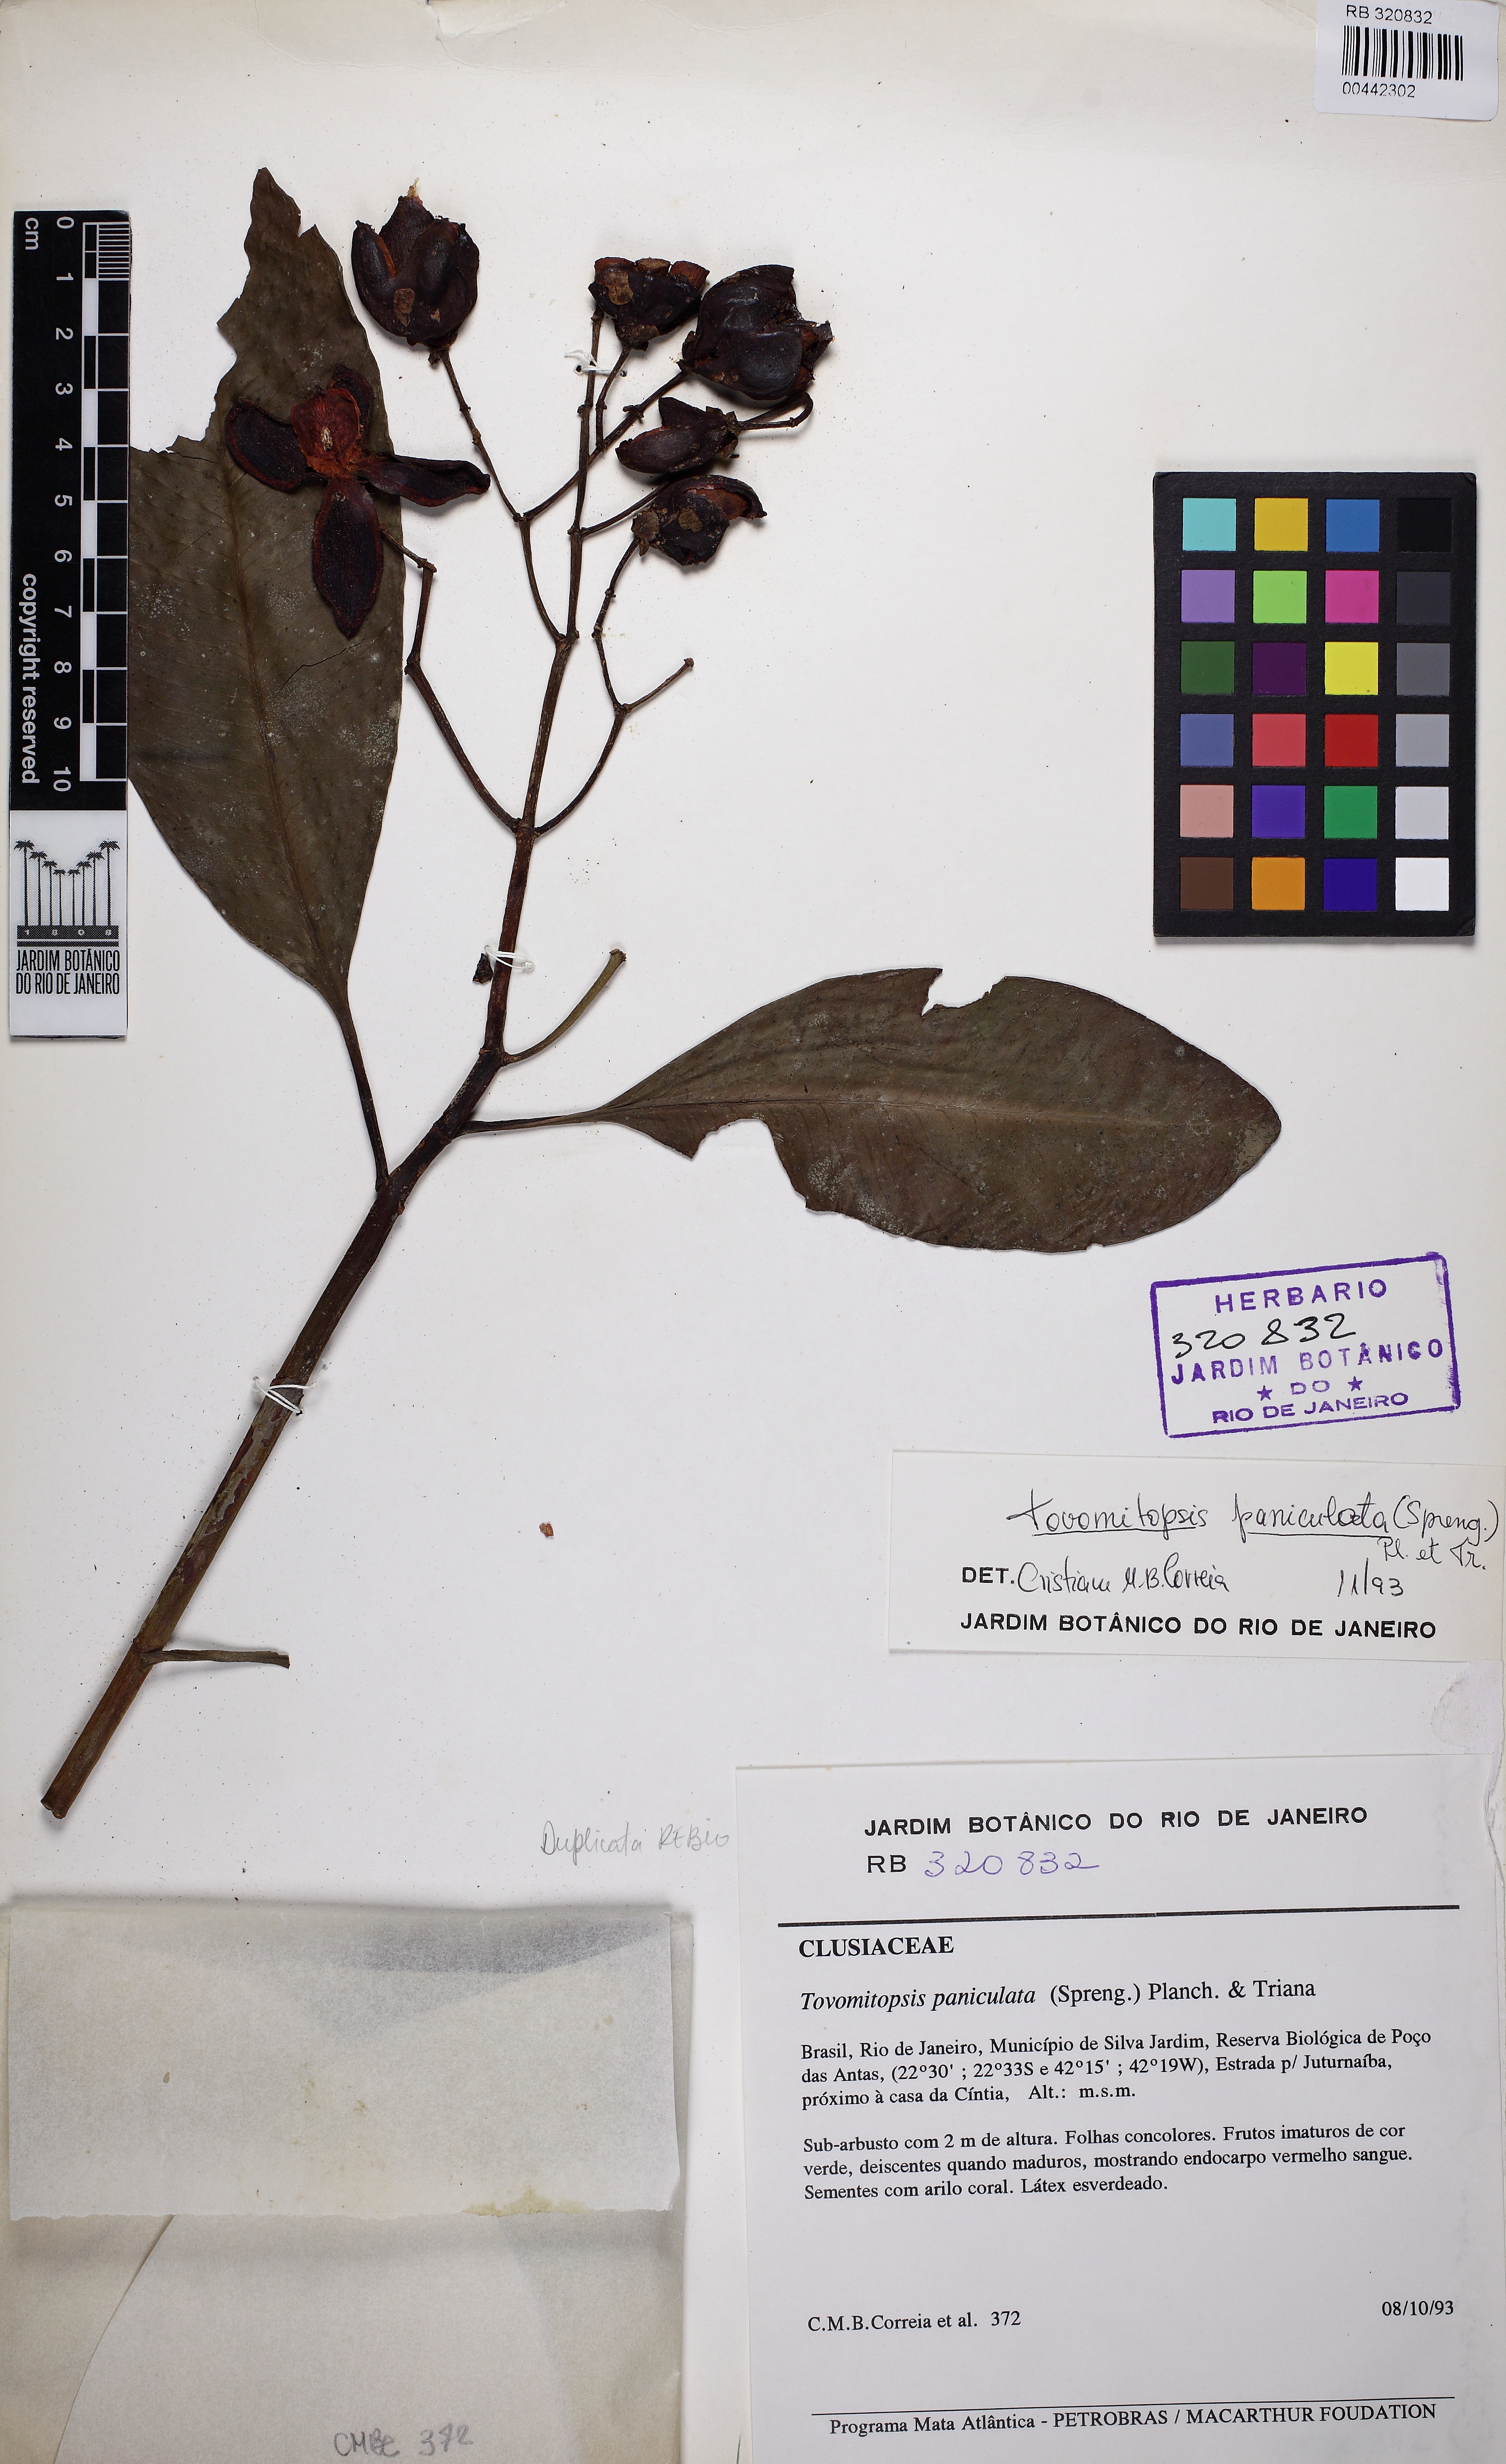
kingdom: Plantae
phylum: Tracheophyta
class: Magnoliopsida
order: Malpighiales
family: Clusiaceae
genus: Chrysochlamys
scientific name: Chrysochlamys paniculata
